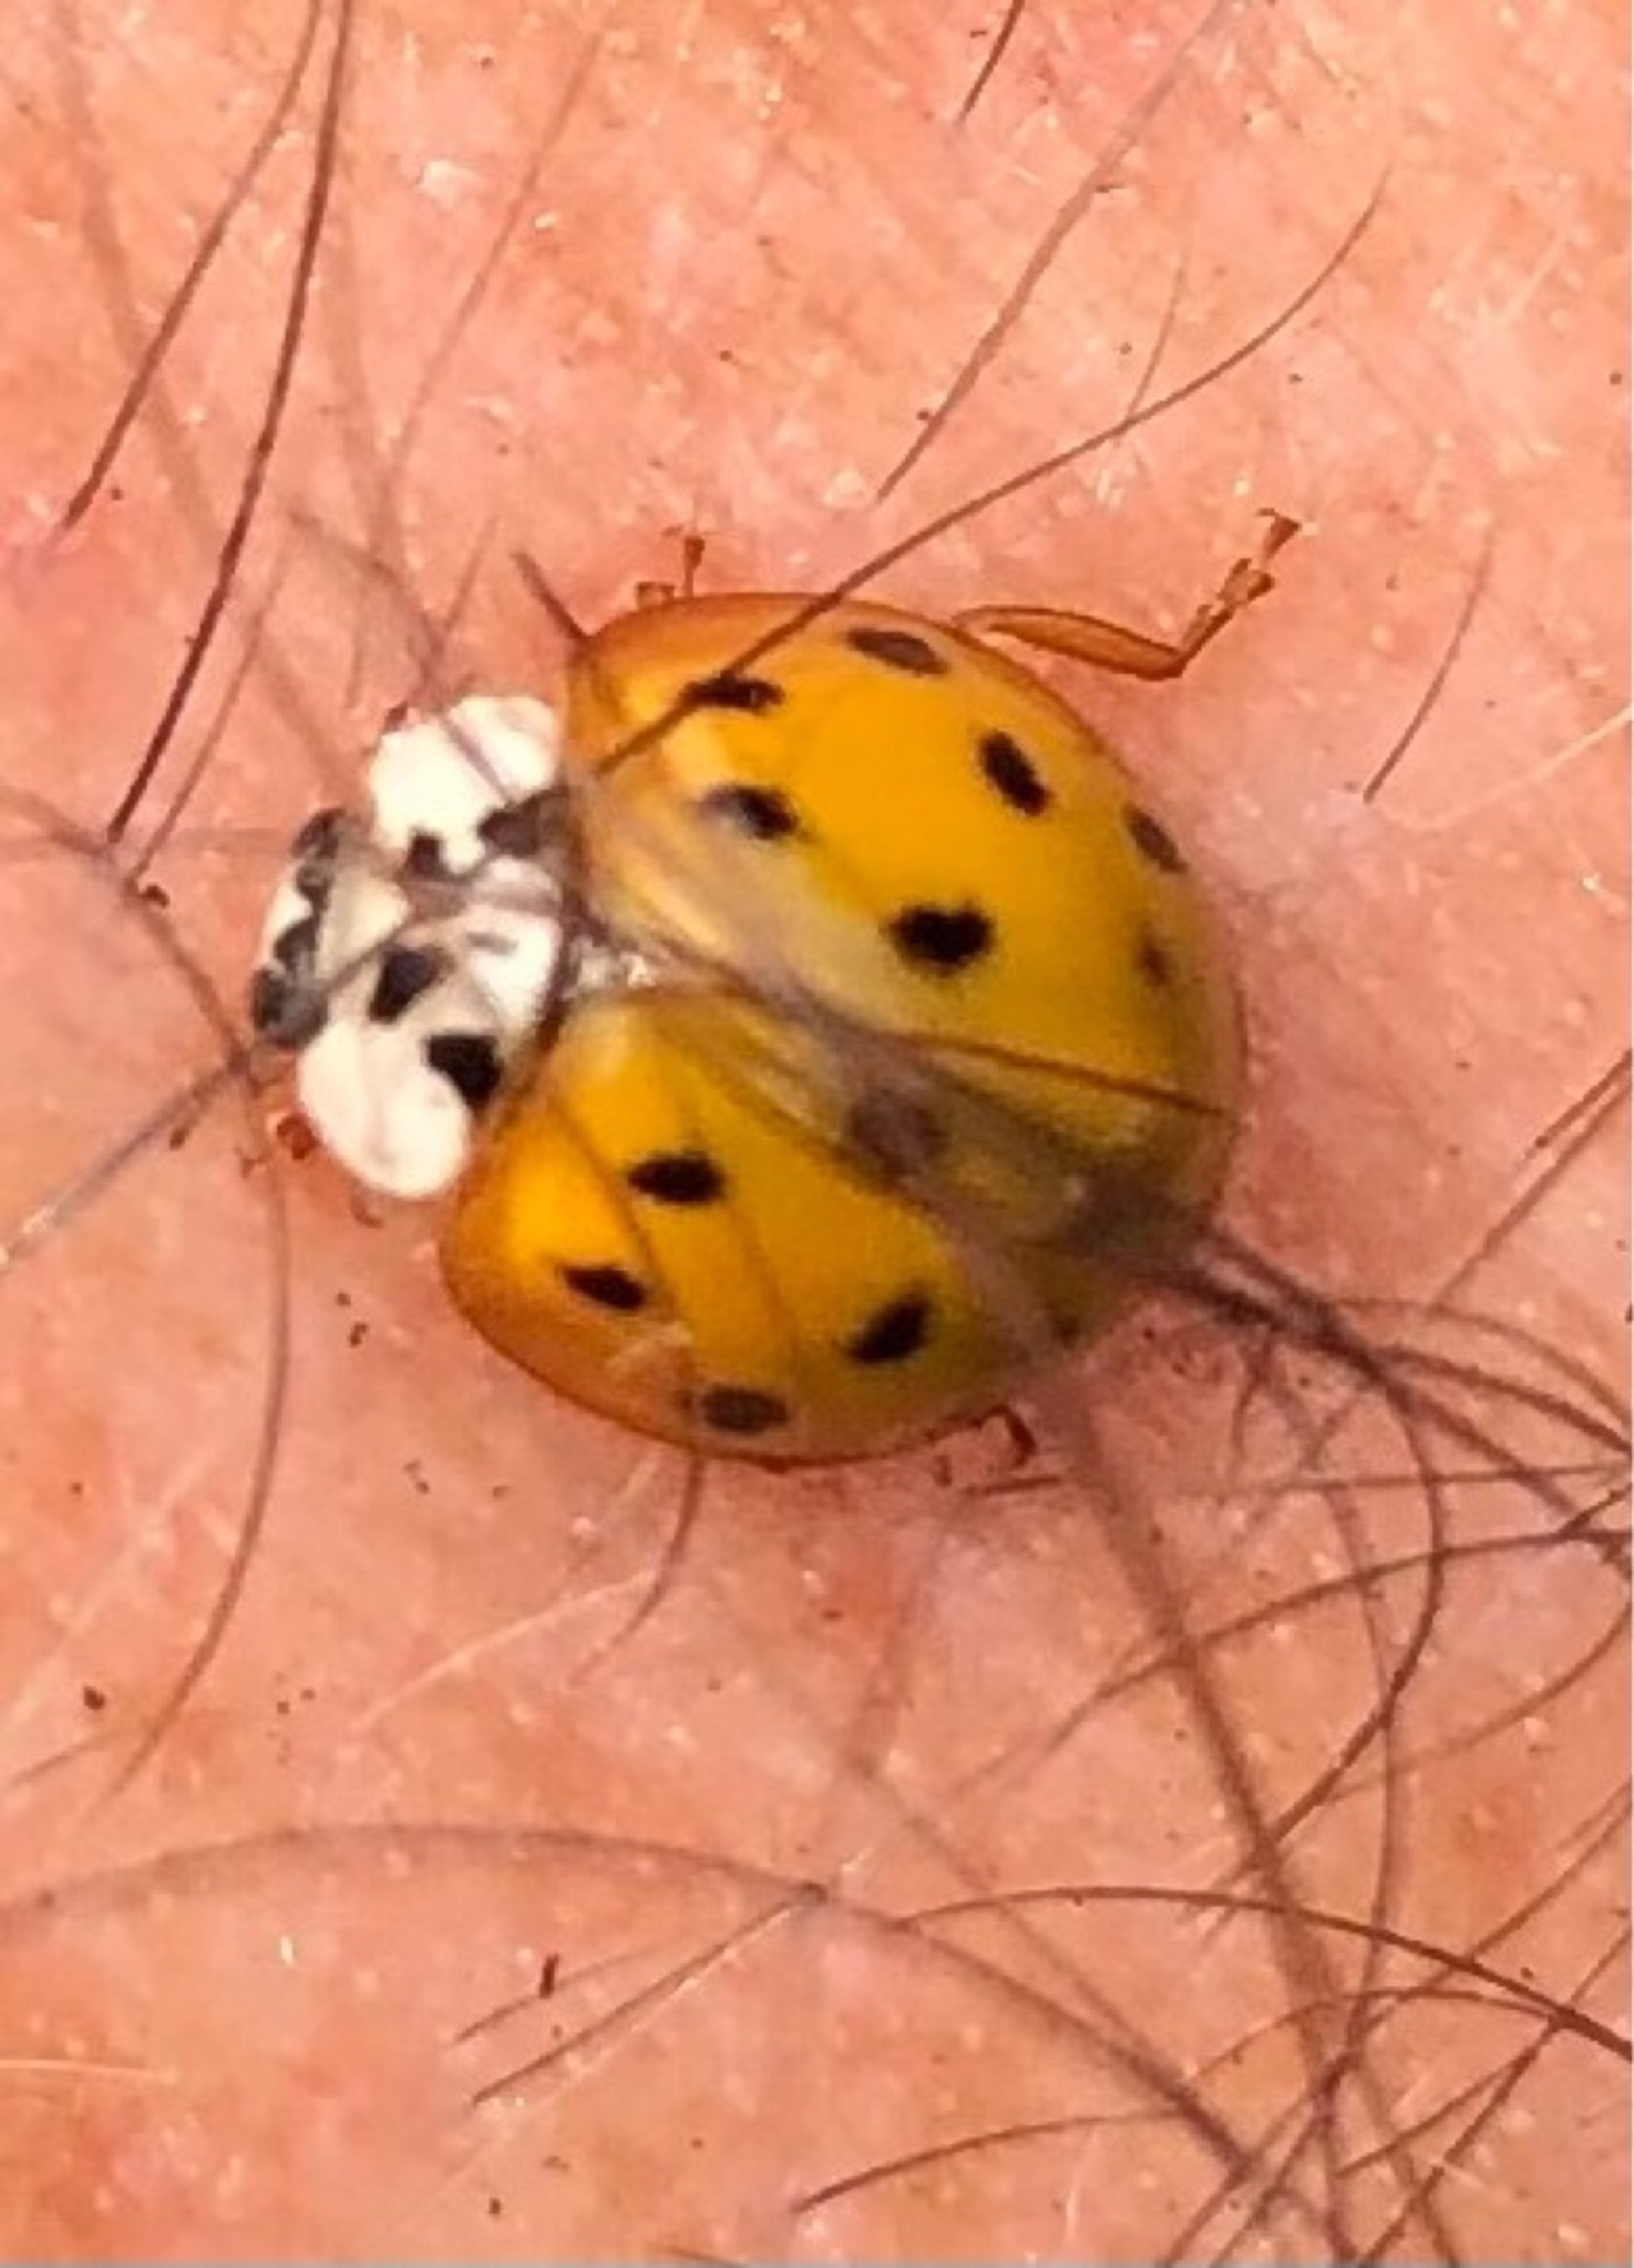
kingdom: Animalia
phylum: Arthropoda
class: Insecta
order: Coleoptera
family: Coccinellidae
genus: Harmonia
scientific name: Harmonia axyridis
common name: Harlekinmariehøne
